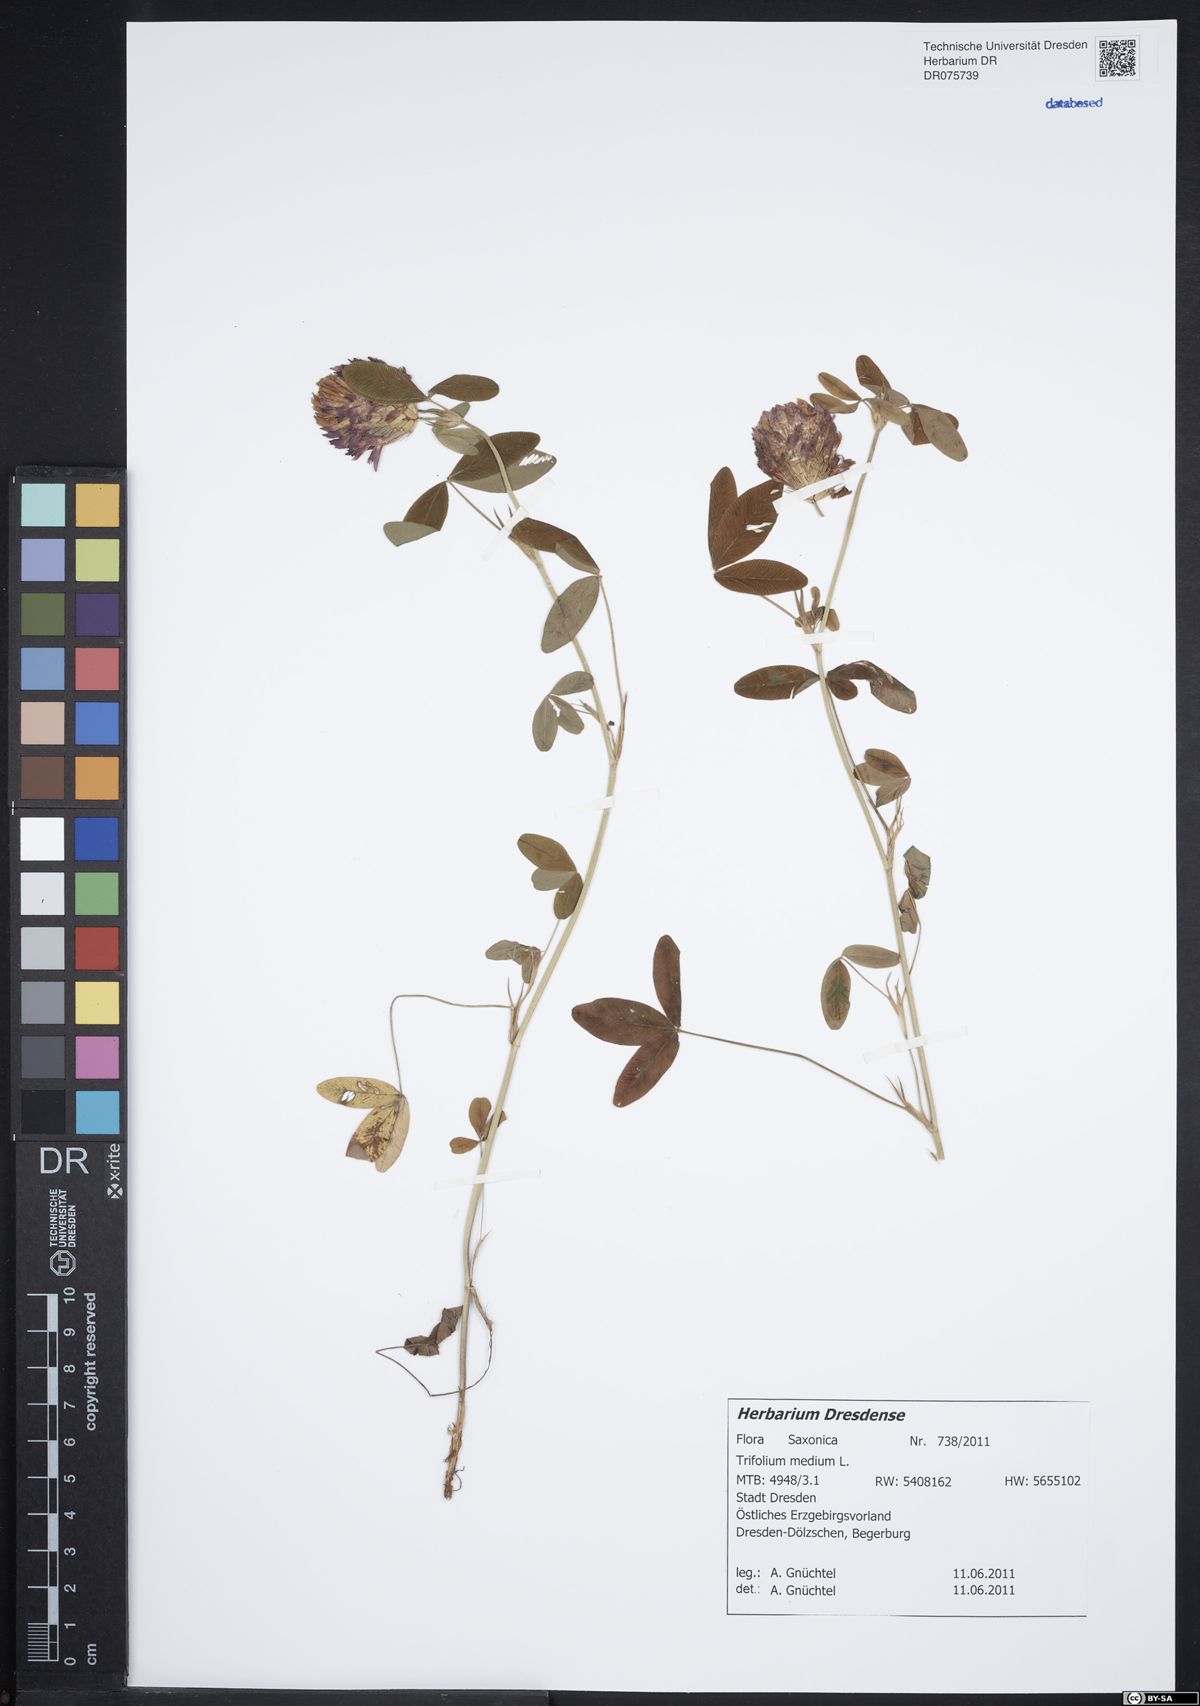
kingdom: Plantae
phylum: Tracheophyta
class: Magnoliopsida
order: Fabales
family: Fabaceae
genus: Trifolium
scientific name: Trifolium medium
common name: Zigzag clover
